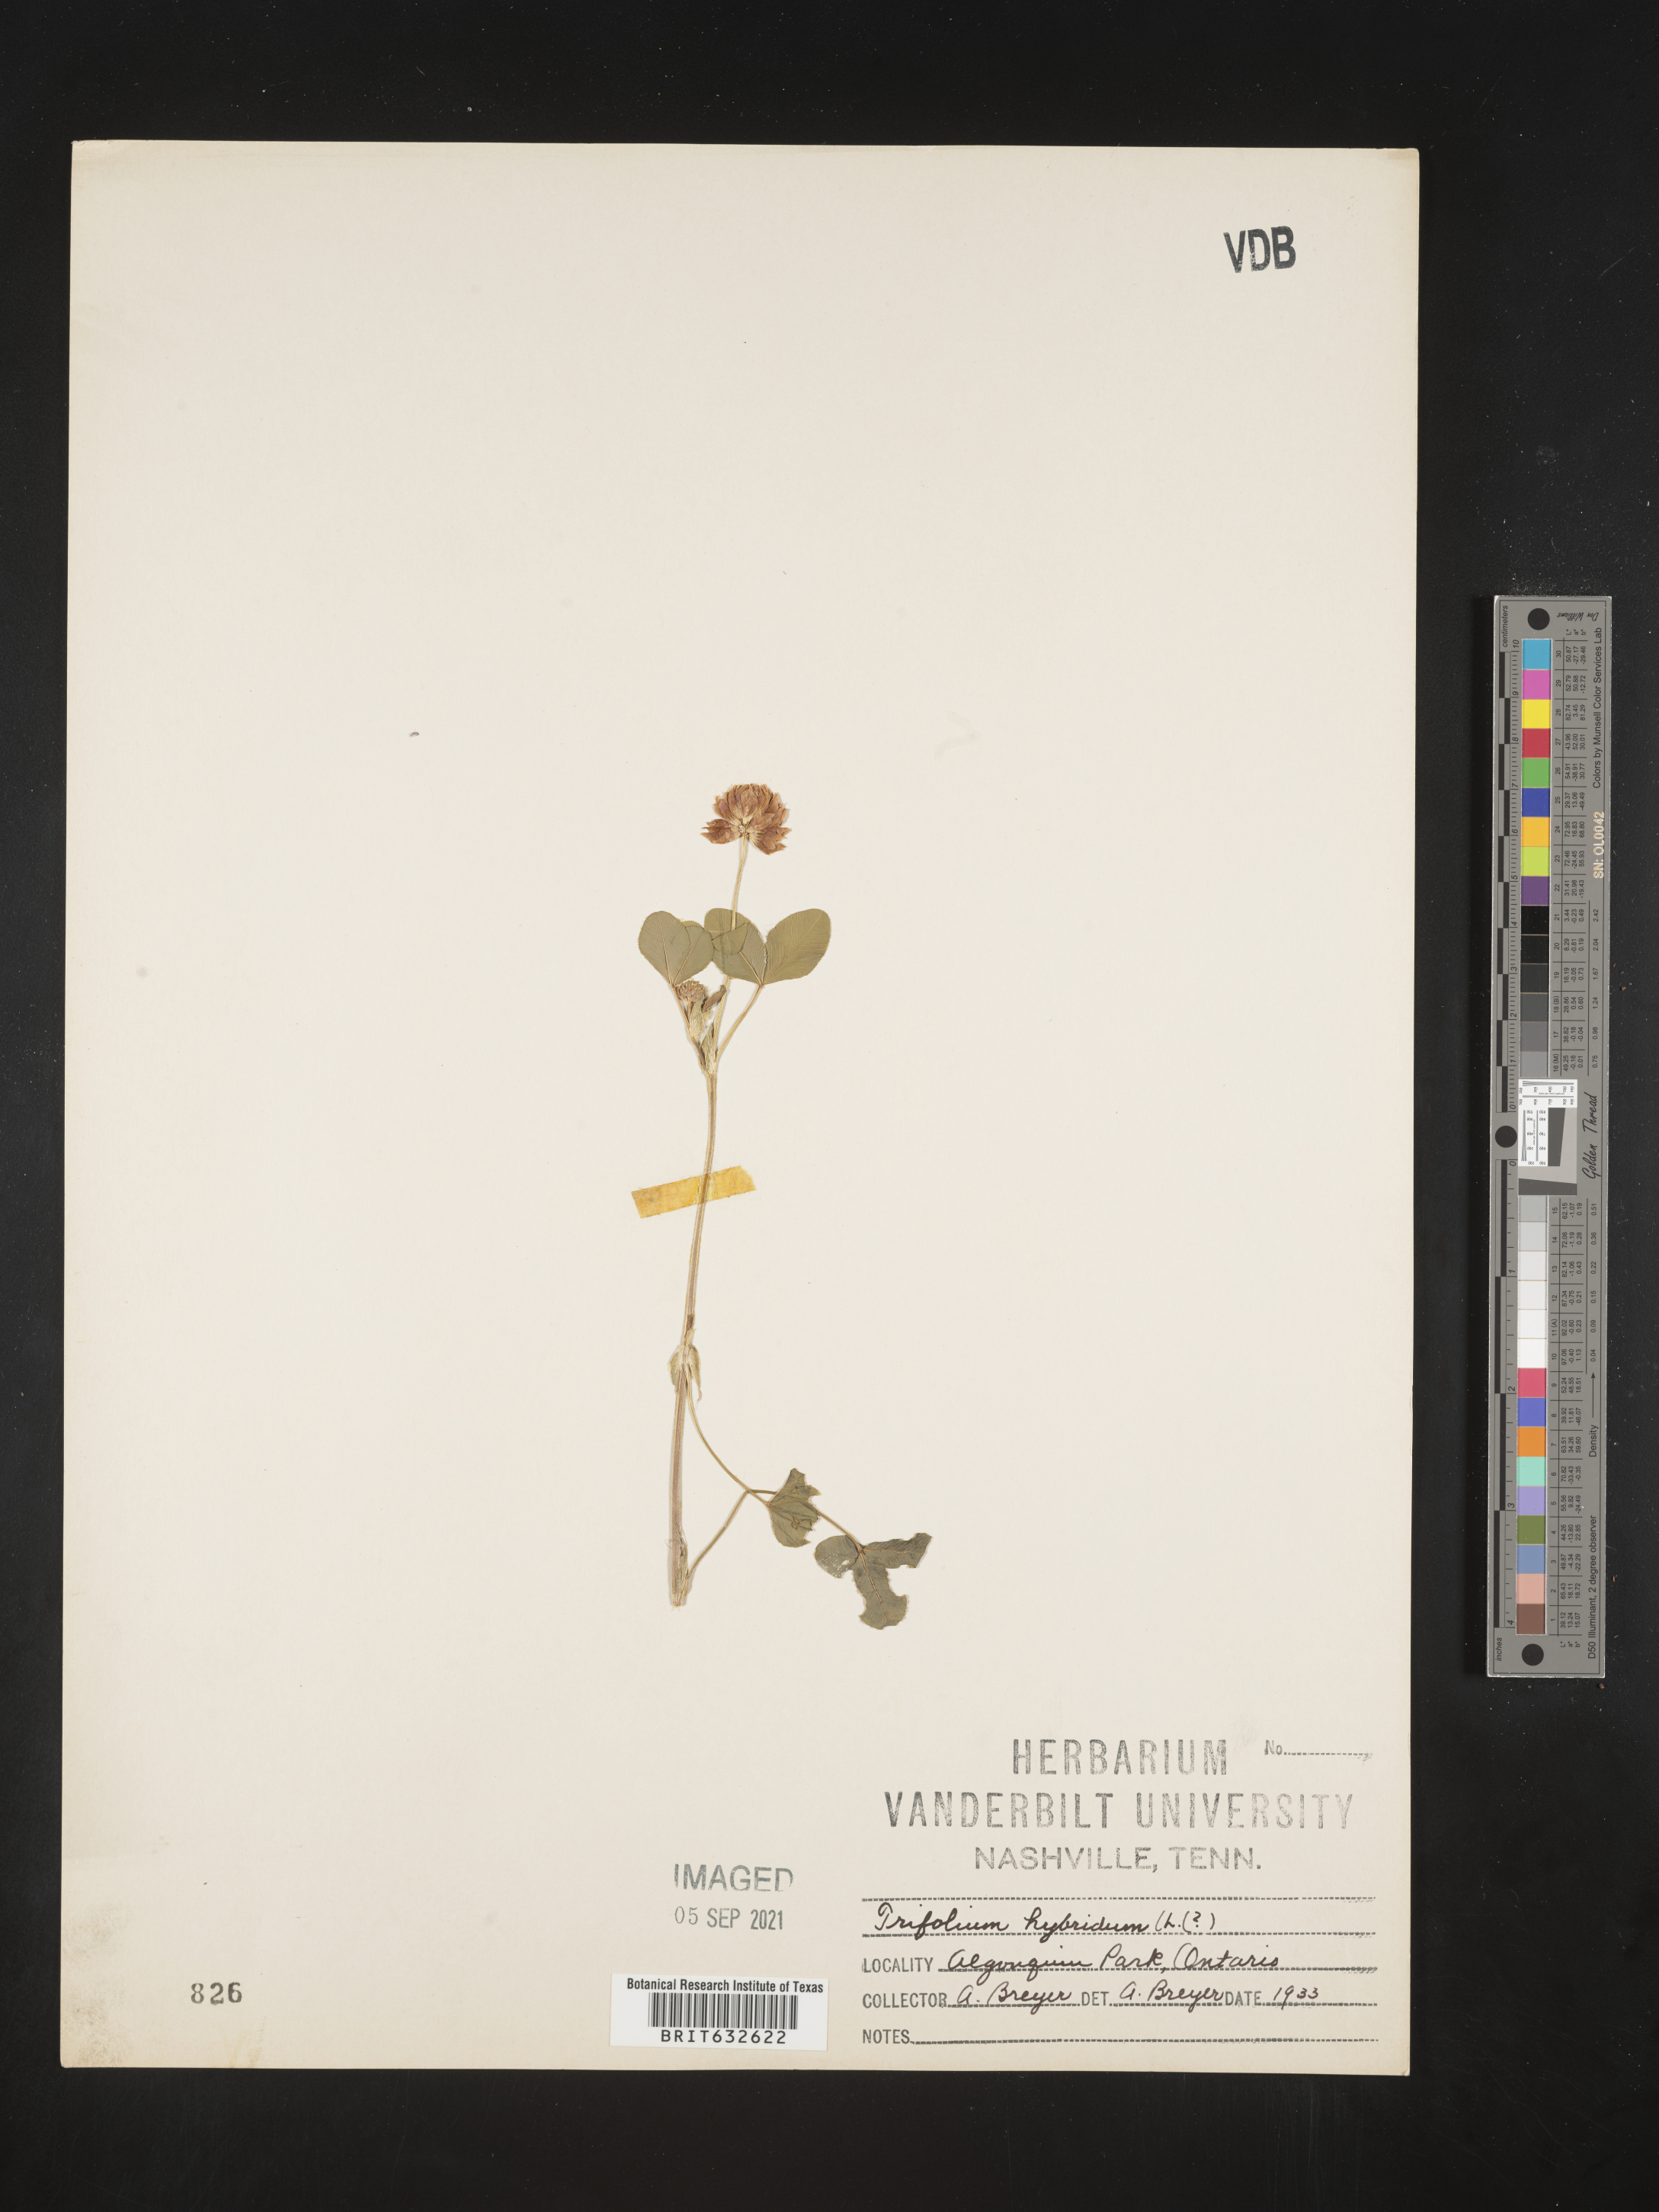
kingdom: Plantae
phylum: Tracheophyta
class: Magnoliopsida
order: Fabales
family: Fabaceae
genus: Trifolium
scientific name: Trifolium
